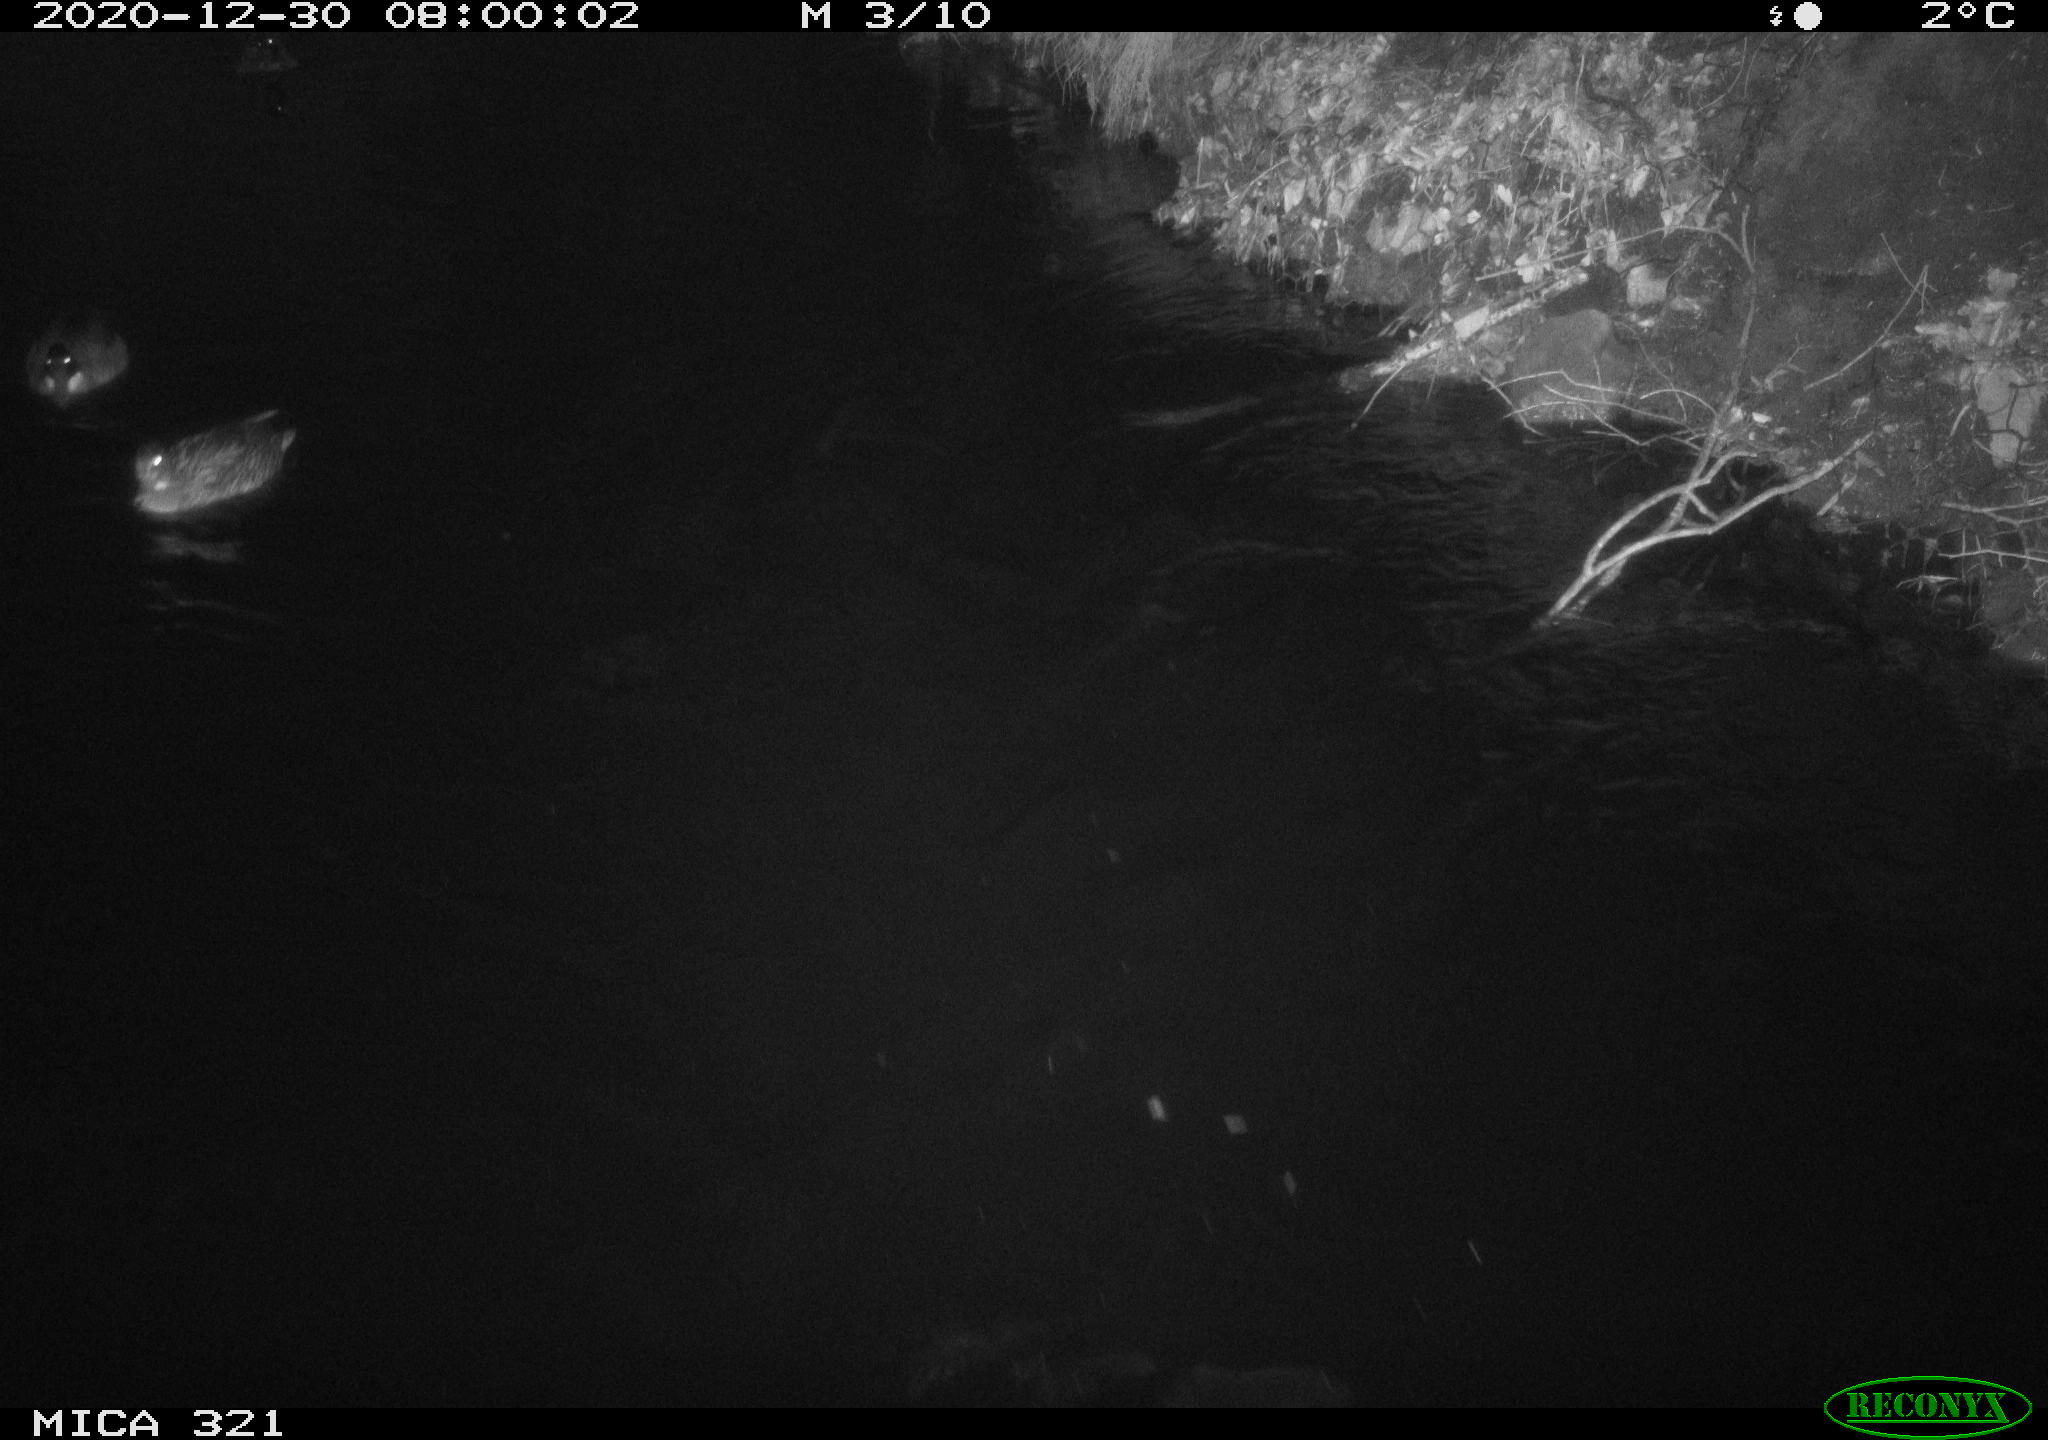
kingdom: Animalia
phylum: Chordata
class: Aves
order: Anseriformes
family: Anatidae
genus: Anas
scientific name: Anas platyrhynchos
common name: Mallard
